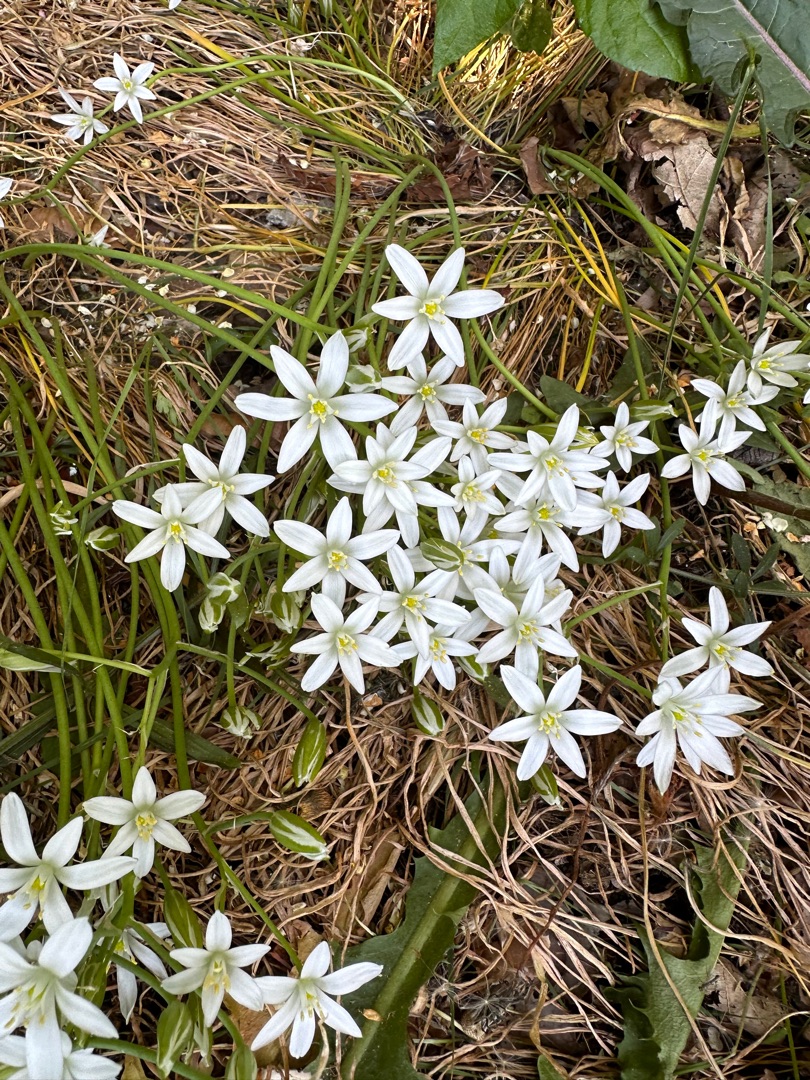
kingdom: Plantae
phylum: Tracheophyta
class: Liliopsida
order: Asparagales
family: Asparagaceae
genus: Ornithogalum
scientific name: Ornithogalum umbellatum
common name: Kost-fuglemælk
